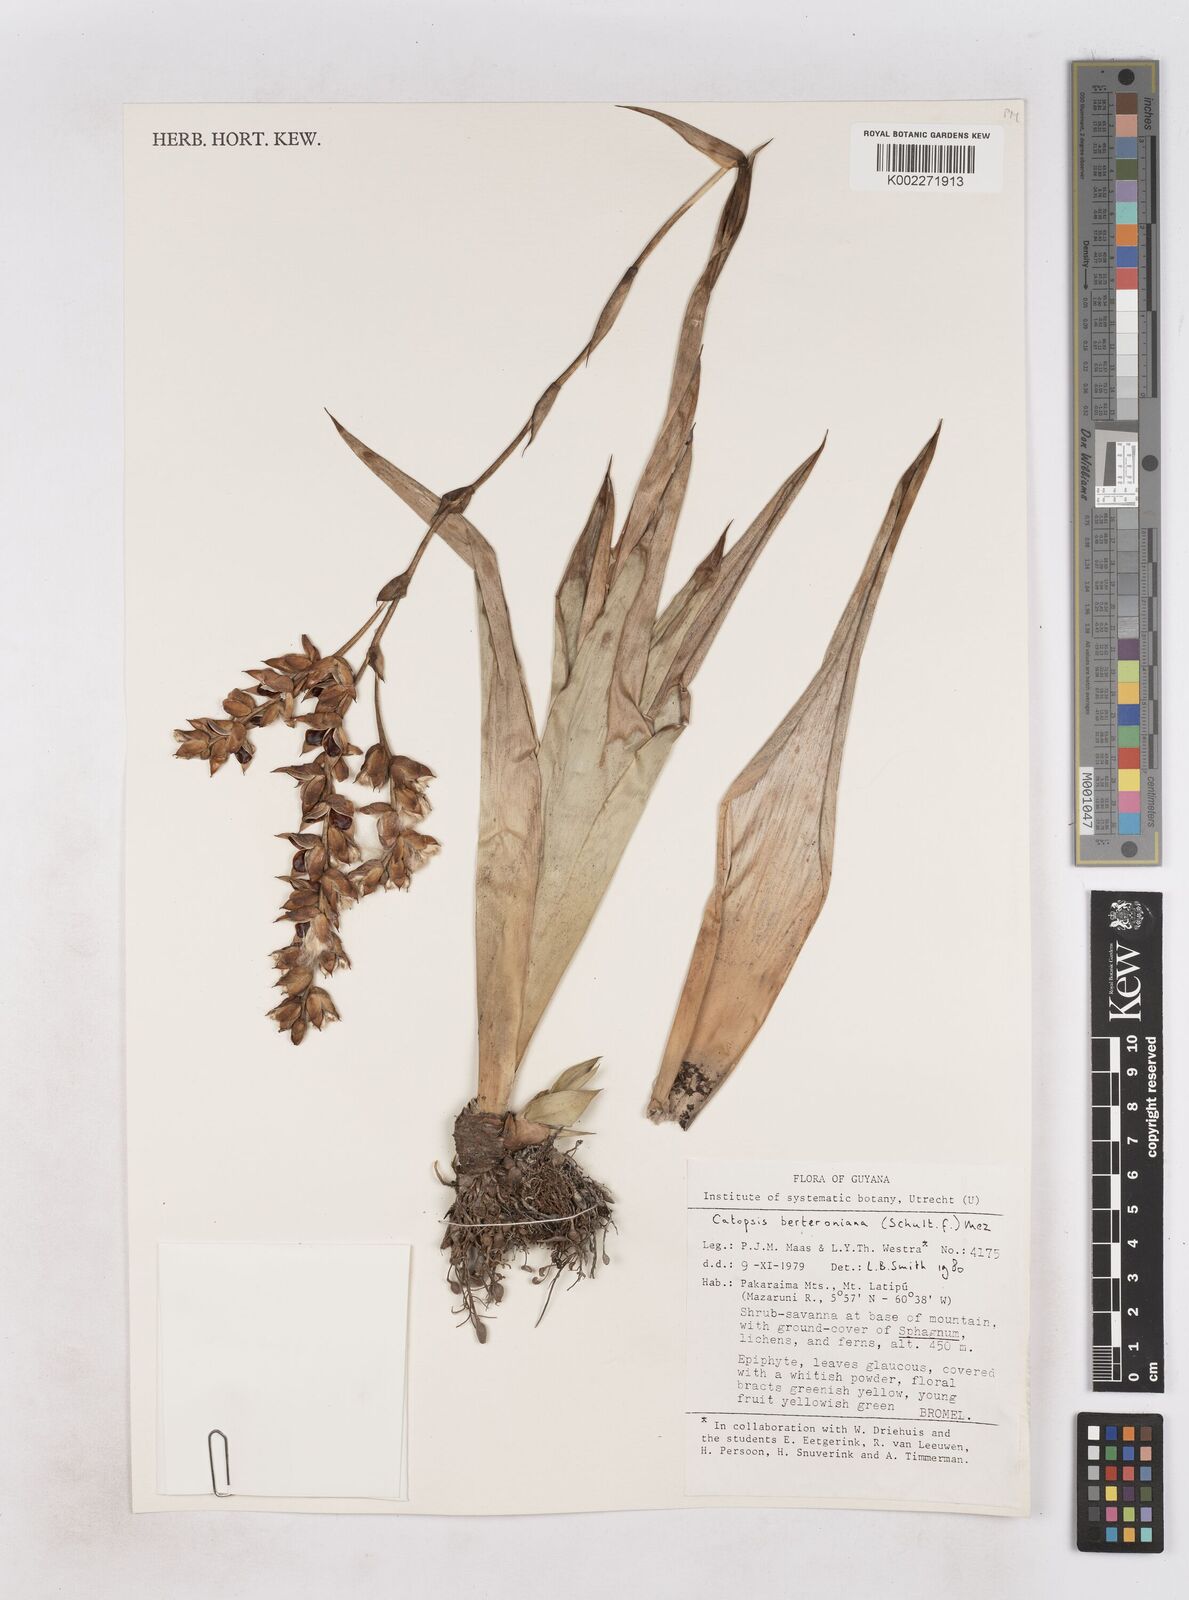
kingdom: Plantae
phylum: Tracheophyta
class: Liliopsida
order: Poales
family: Bromeliaceae
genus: Catopsis
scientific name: Catopsis berteroniana
